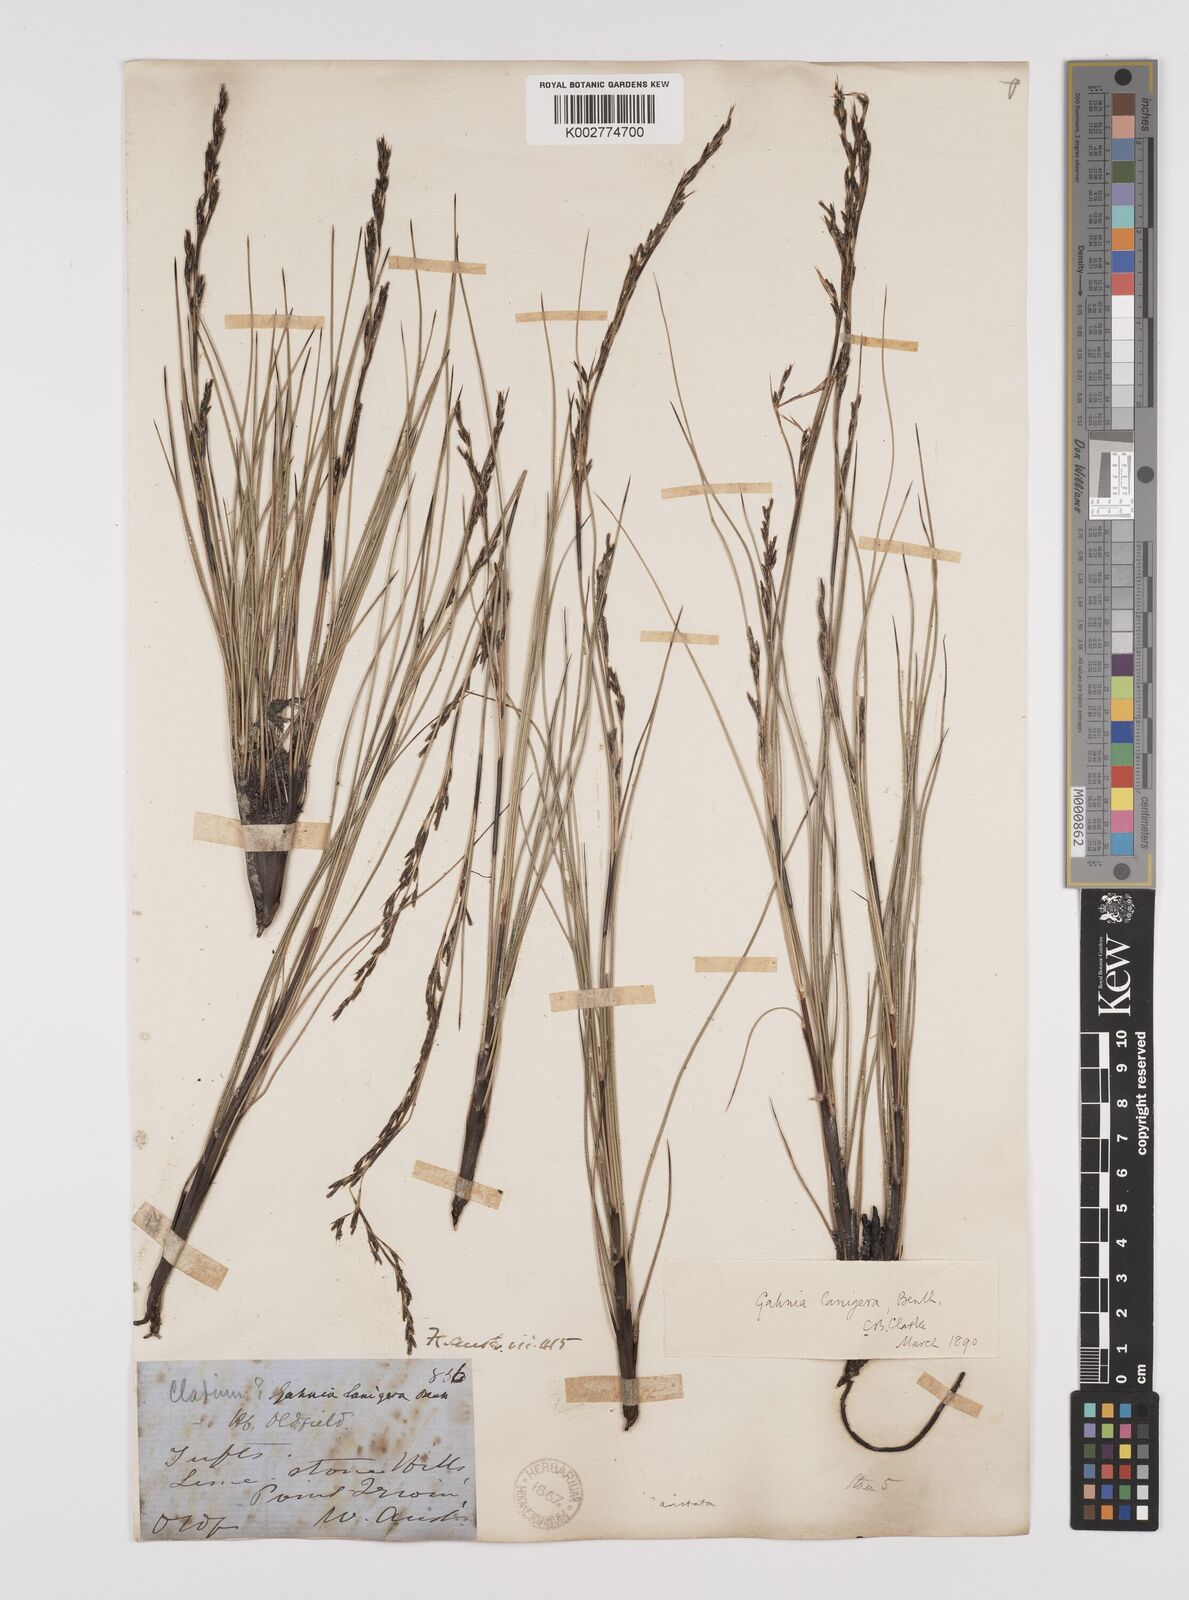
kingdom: Plantae
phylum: Tracheophyta
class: Liliopsida
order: Poales
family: Cyperaceae
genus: Machaerina
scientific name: Machaerina articulata
